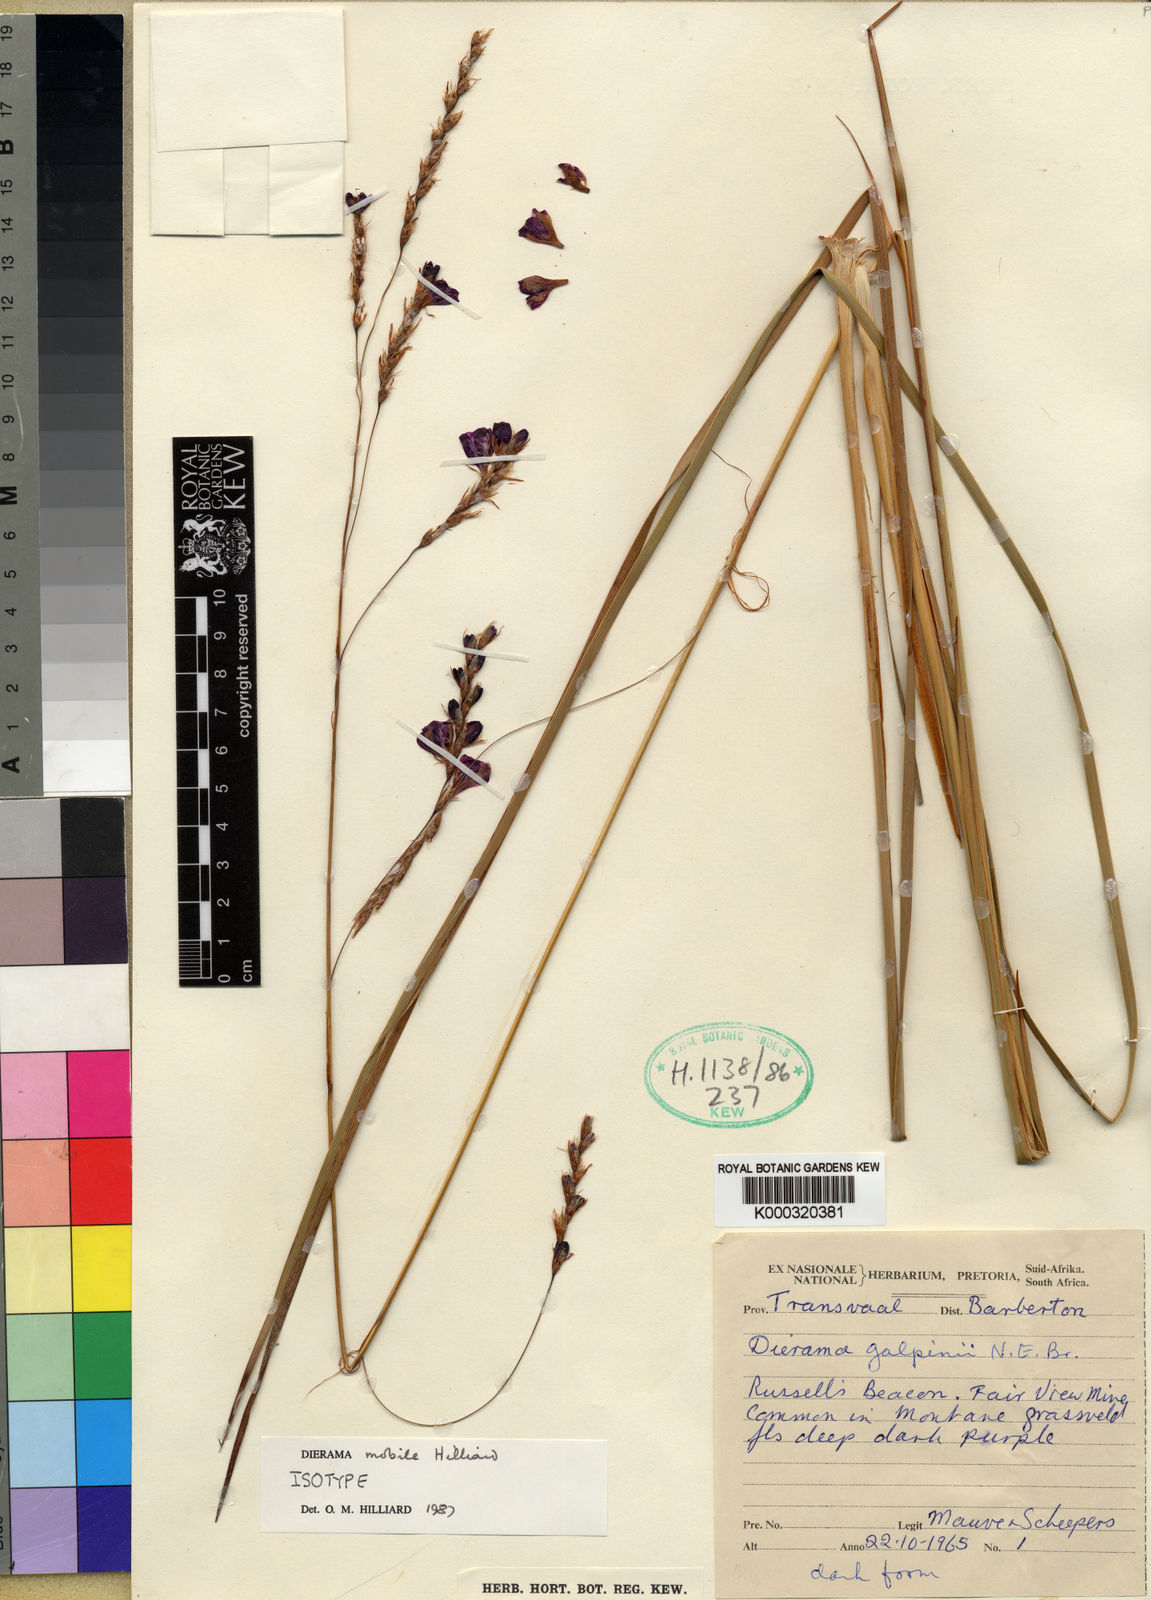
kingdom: Plantae
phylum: Tracheophyta
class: Liliopsida
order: Asparagales
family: Iridaceae
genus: Dierama
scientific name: Dierama mobile
